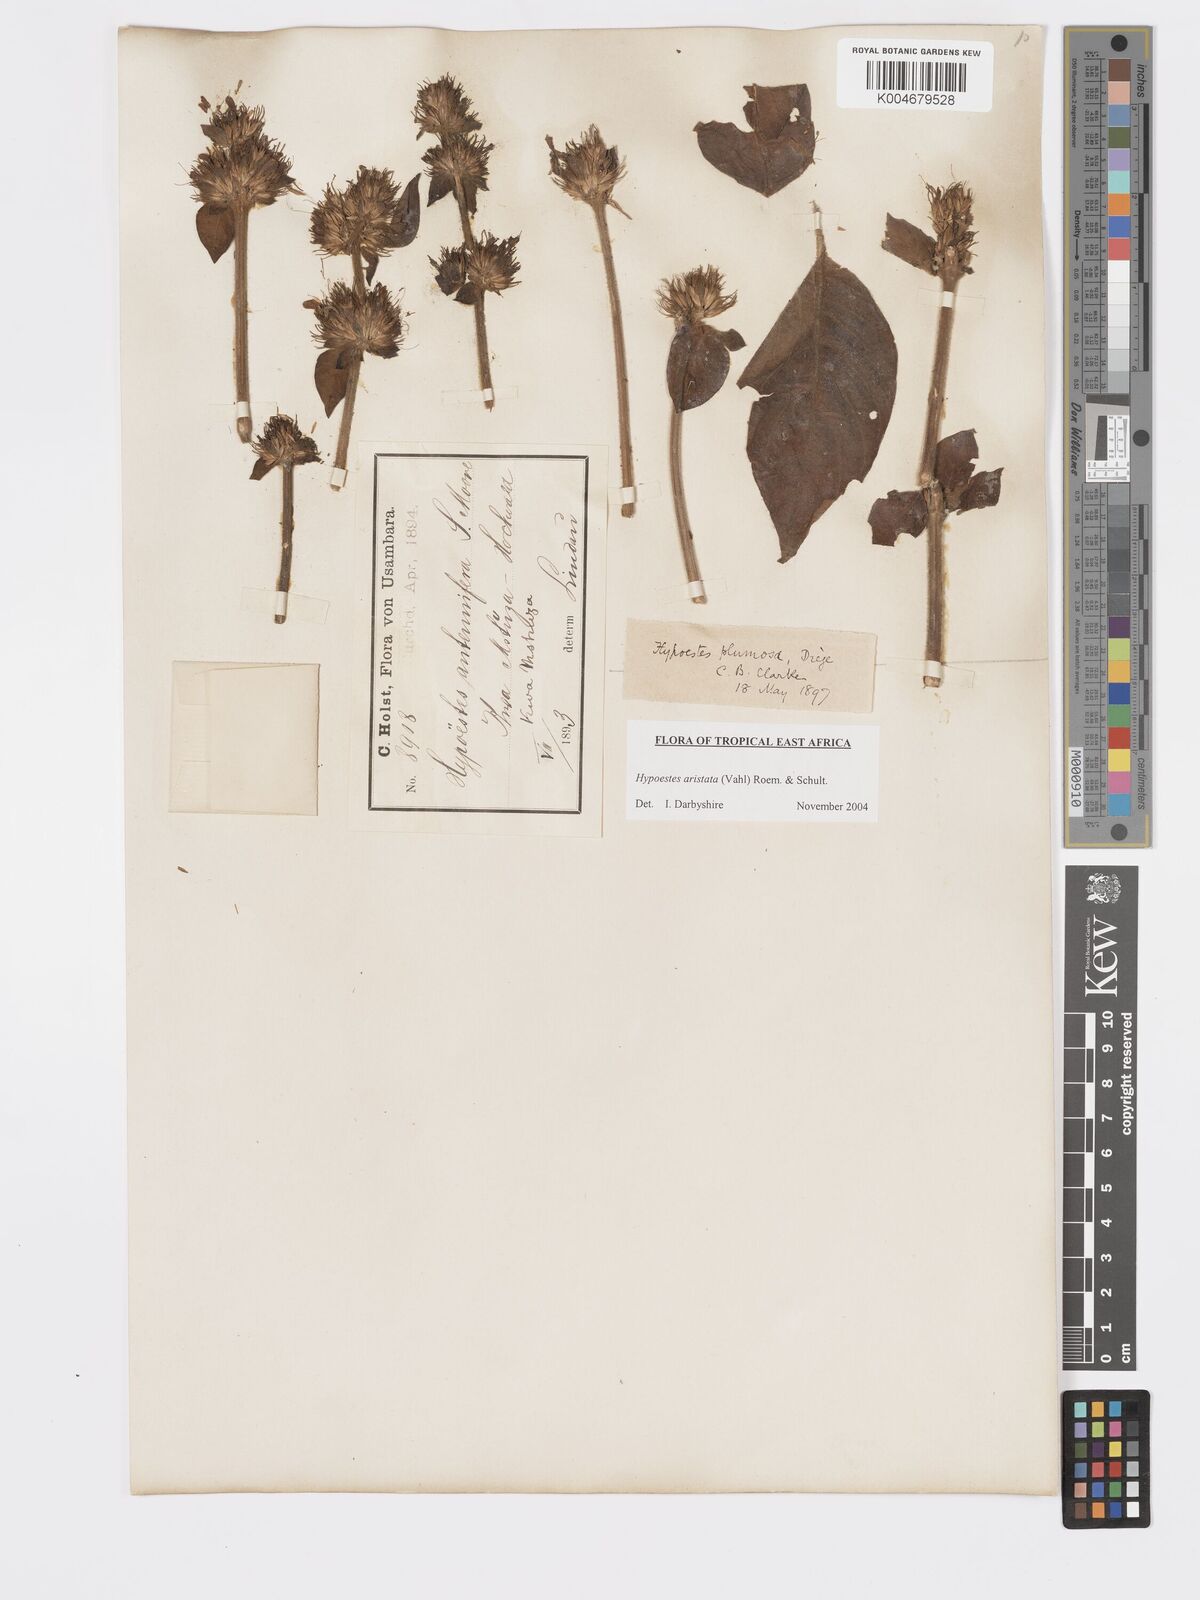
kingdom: Plantae
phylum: Tracheophyta
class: Magnoliopsida
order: Lamiales
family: Acanthaceae
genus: Hypoestes
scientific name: Hypoestes aristata
